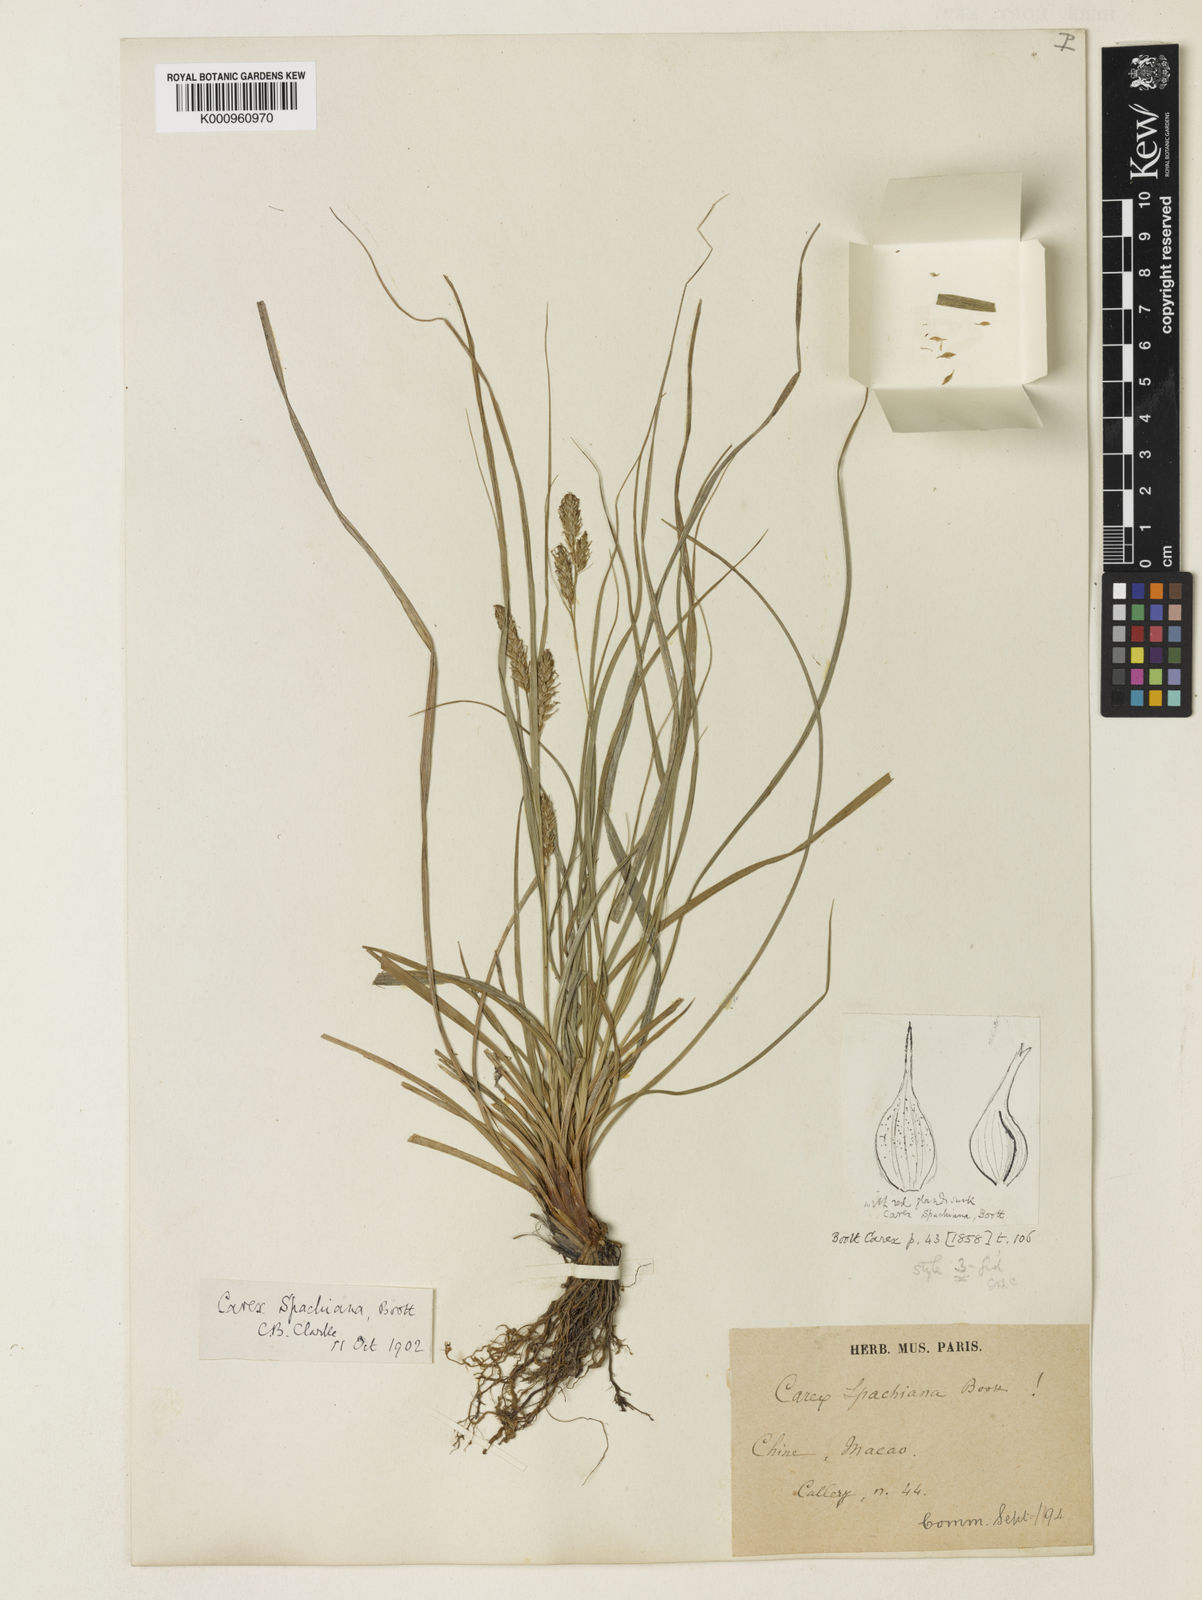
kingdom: Plantae
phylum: Tracheophyta
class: Liliopsida
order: Poales
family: Cyperaceae
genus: Carex
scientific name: Carex spachiana
